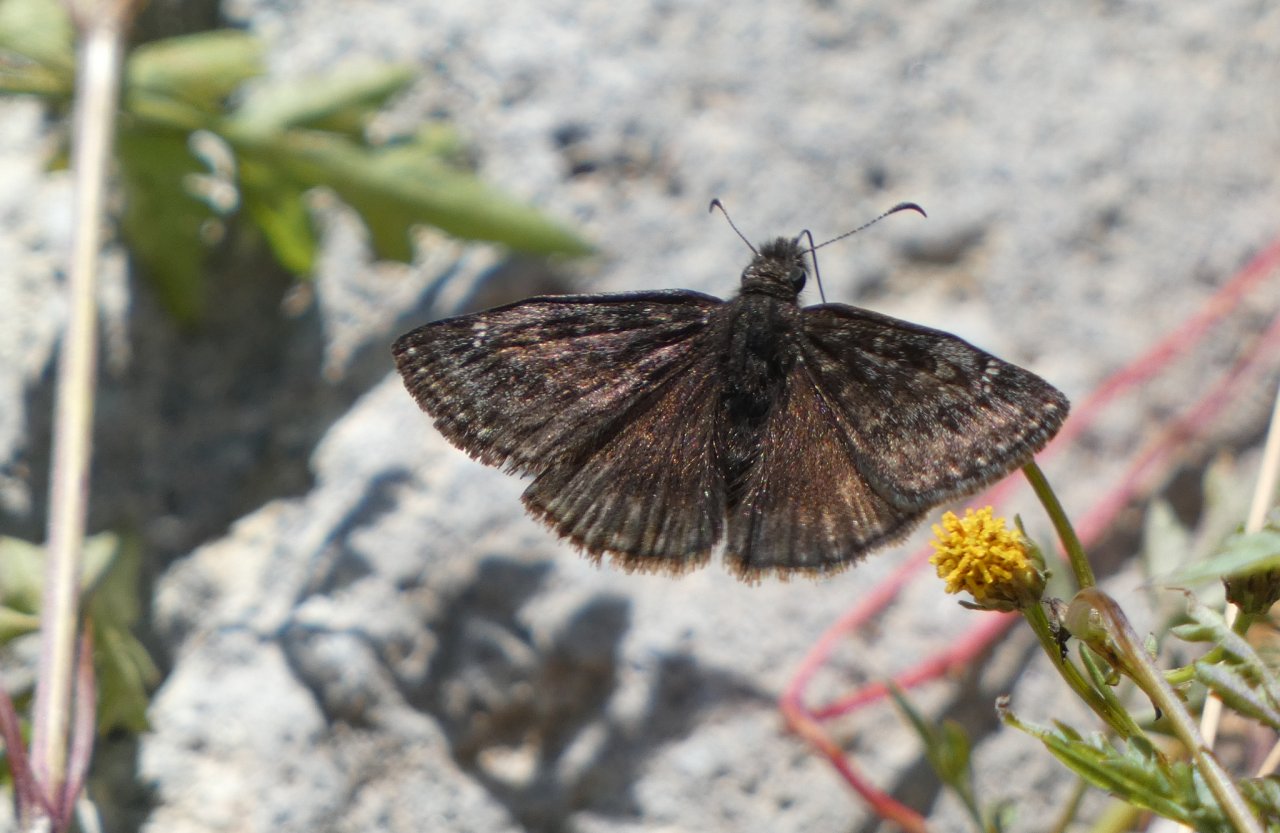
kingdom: Animalia
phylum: Arthropoda
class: Insecta
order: Lepidoptera
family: Hesperiidae
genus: Erynnis
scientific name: Erynnis meridianus
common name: Meridian Duskywing
